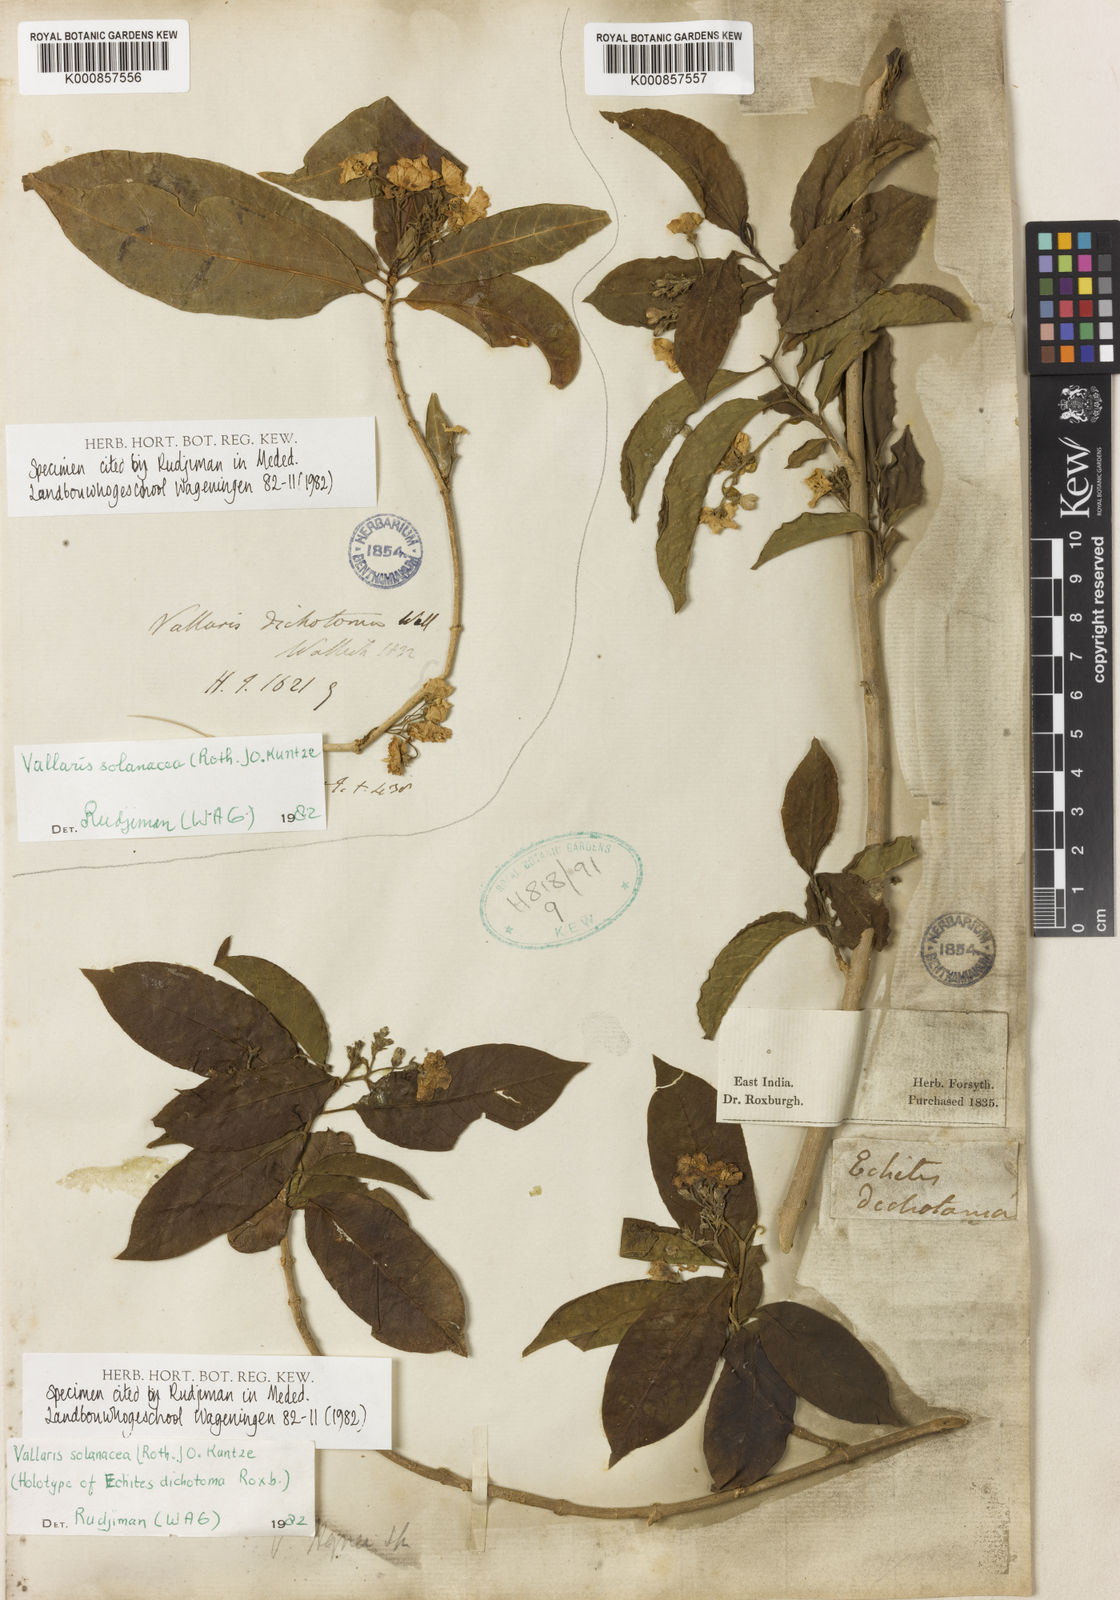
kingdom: Plantae
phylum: Tracheophyta
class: Magnoliopsida
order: Gentianales
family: Apocynaceae
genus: Vallaris
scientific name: Vallaris solanacea
